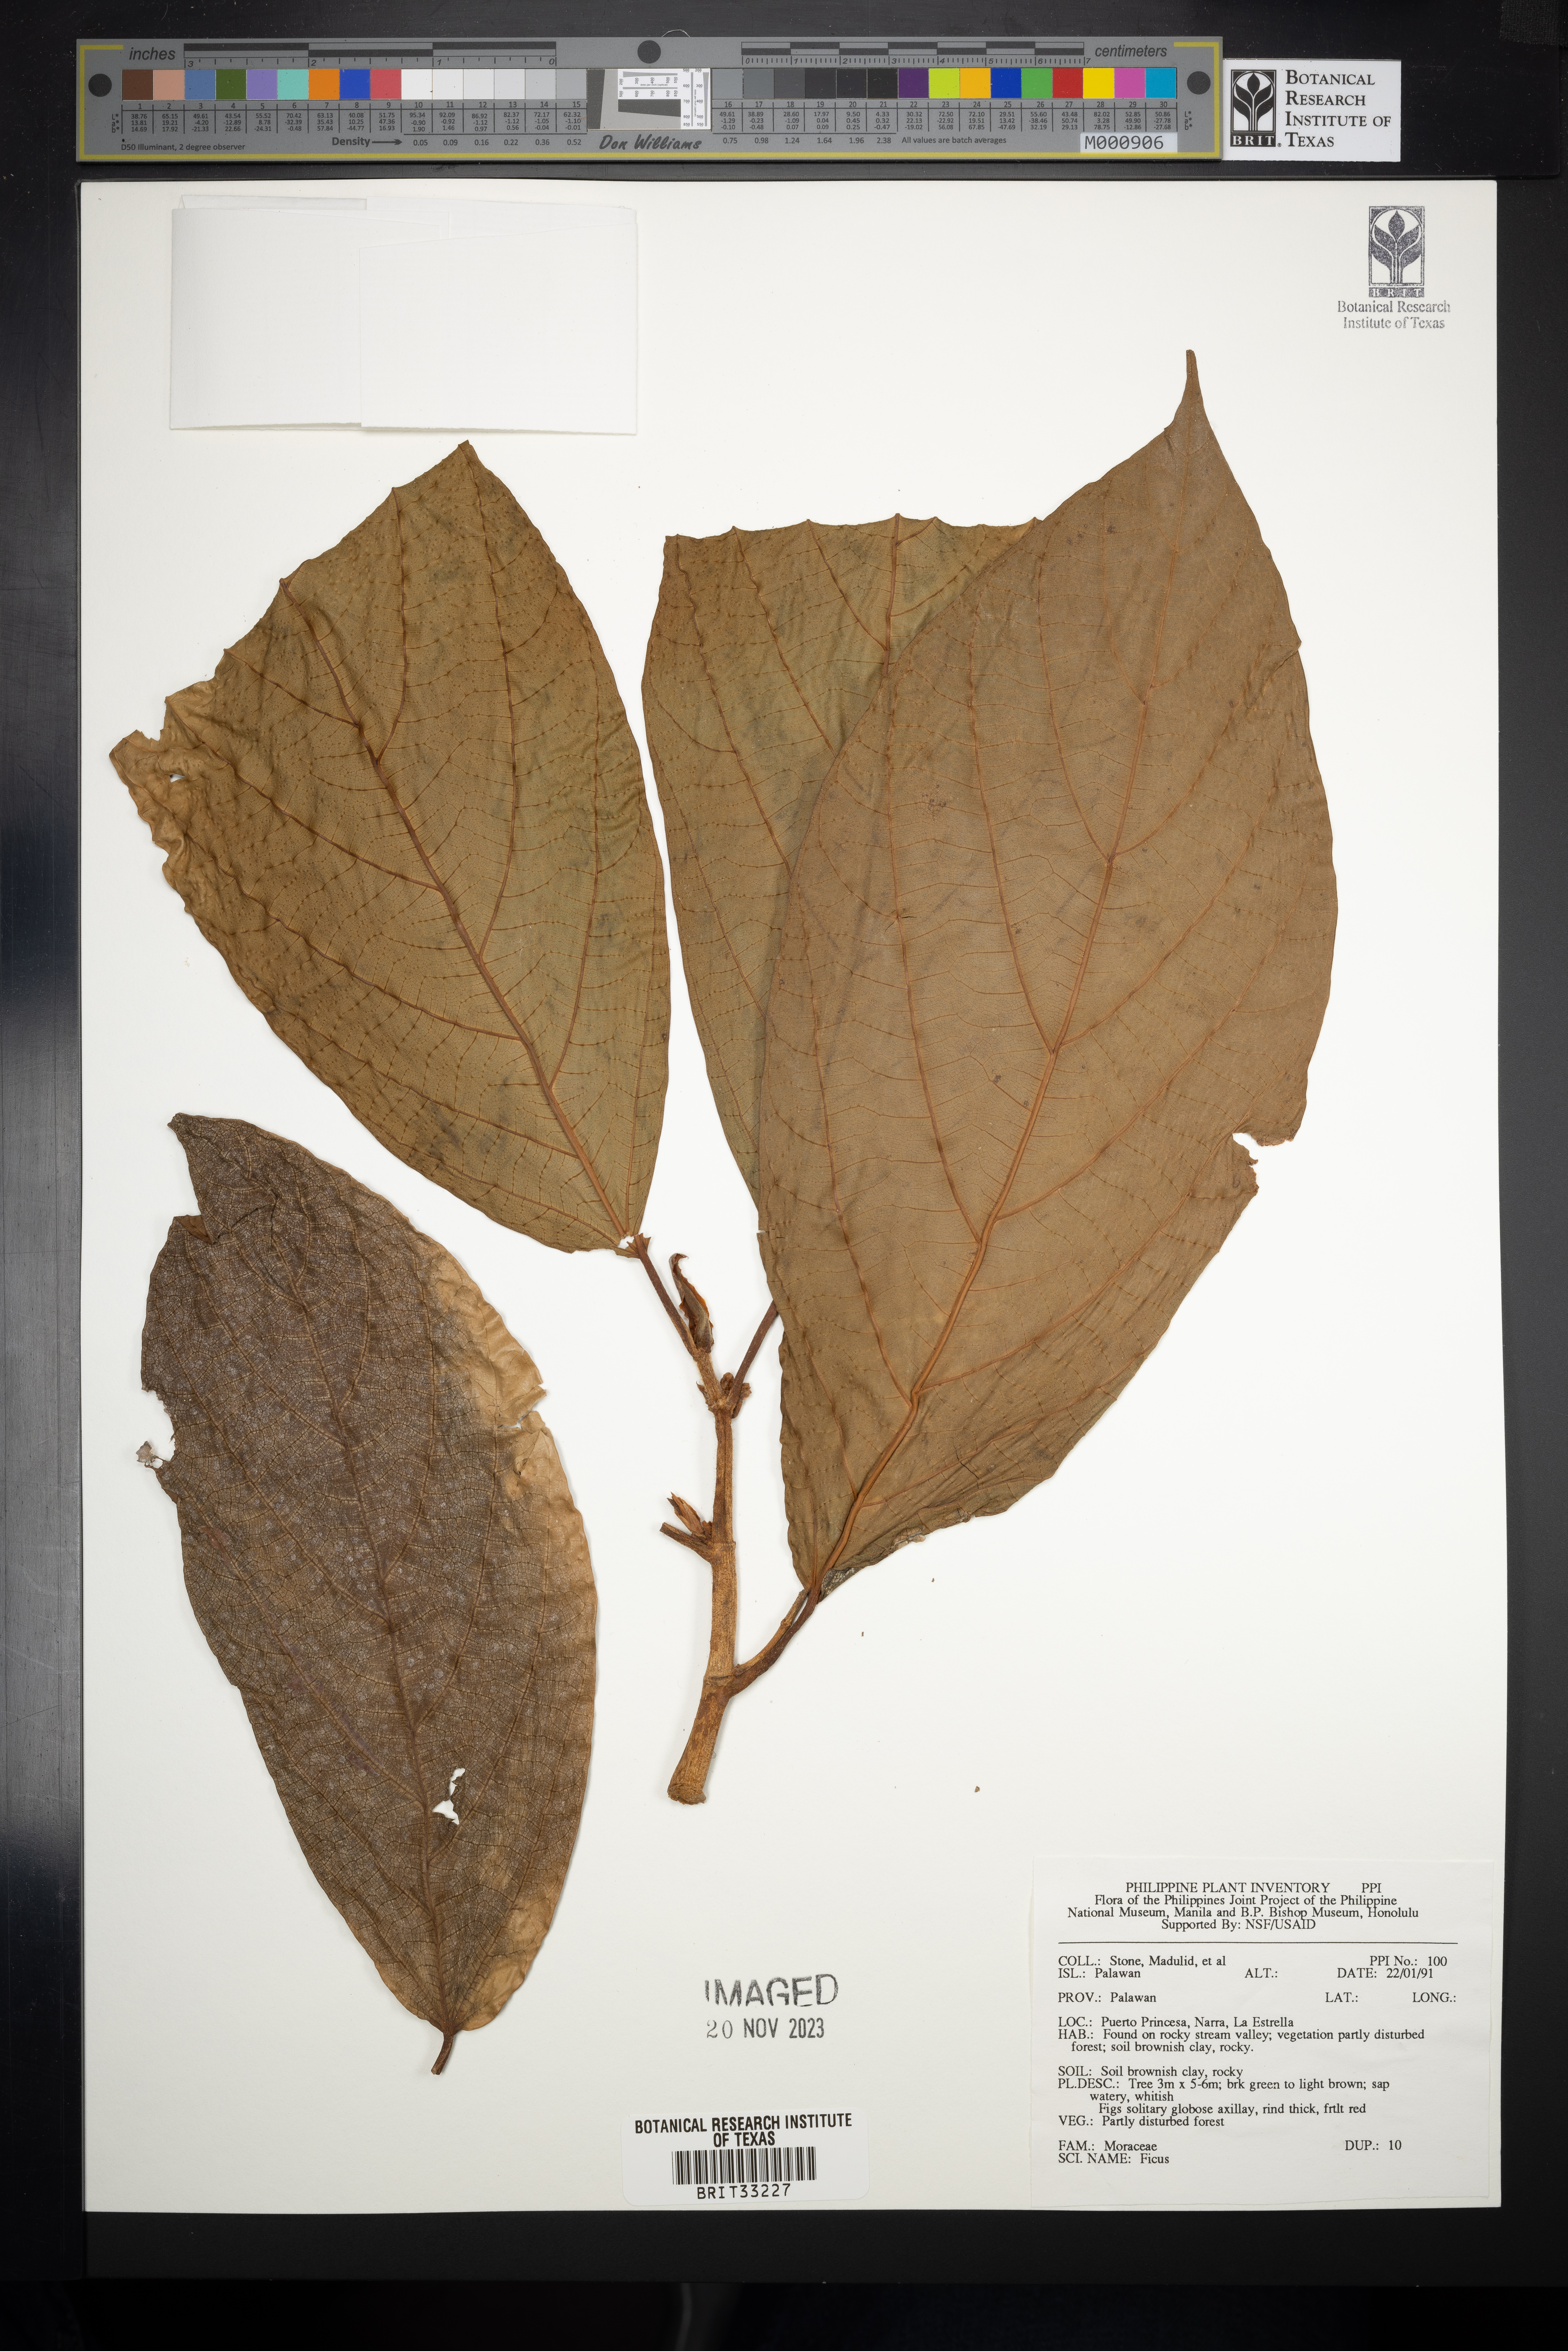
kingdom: Plantae
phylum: Tracheophyta
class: Magnoliopsida
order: Rosales
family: Moraceae
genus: Ficus
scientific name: Ficus
